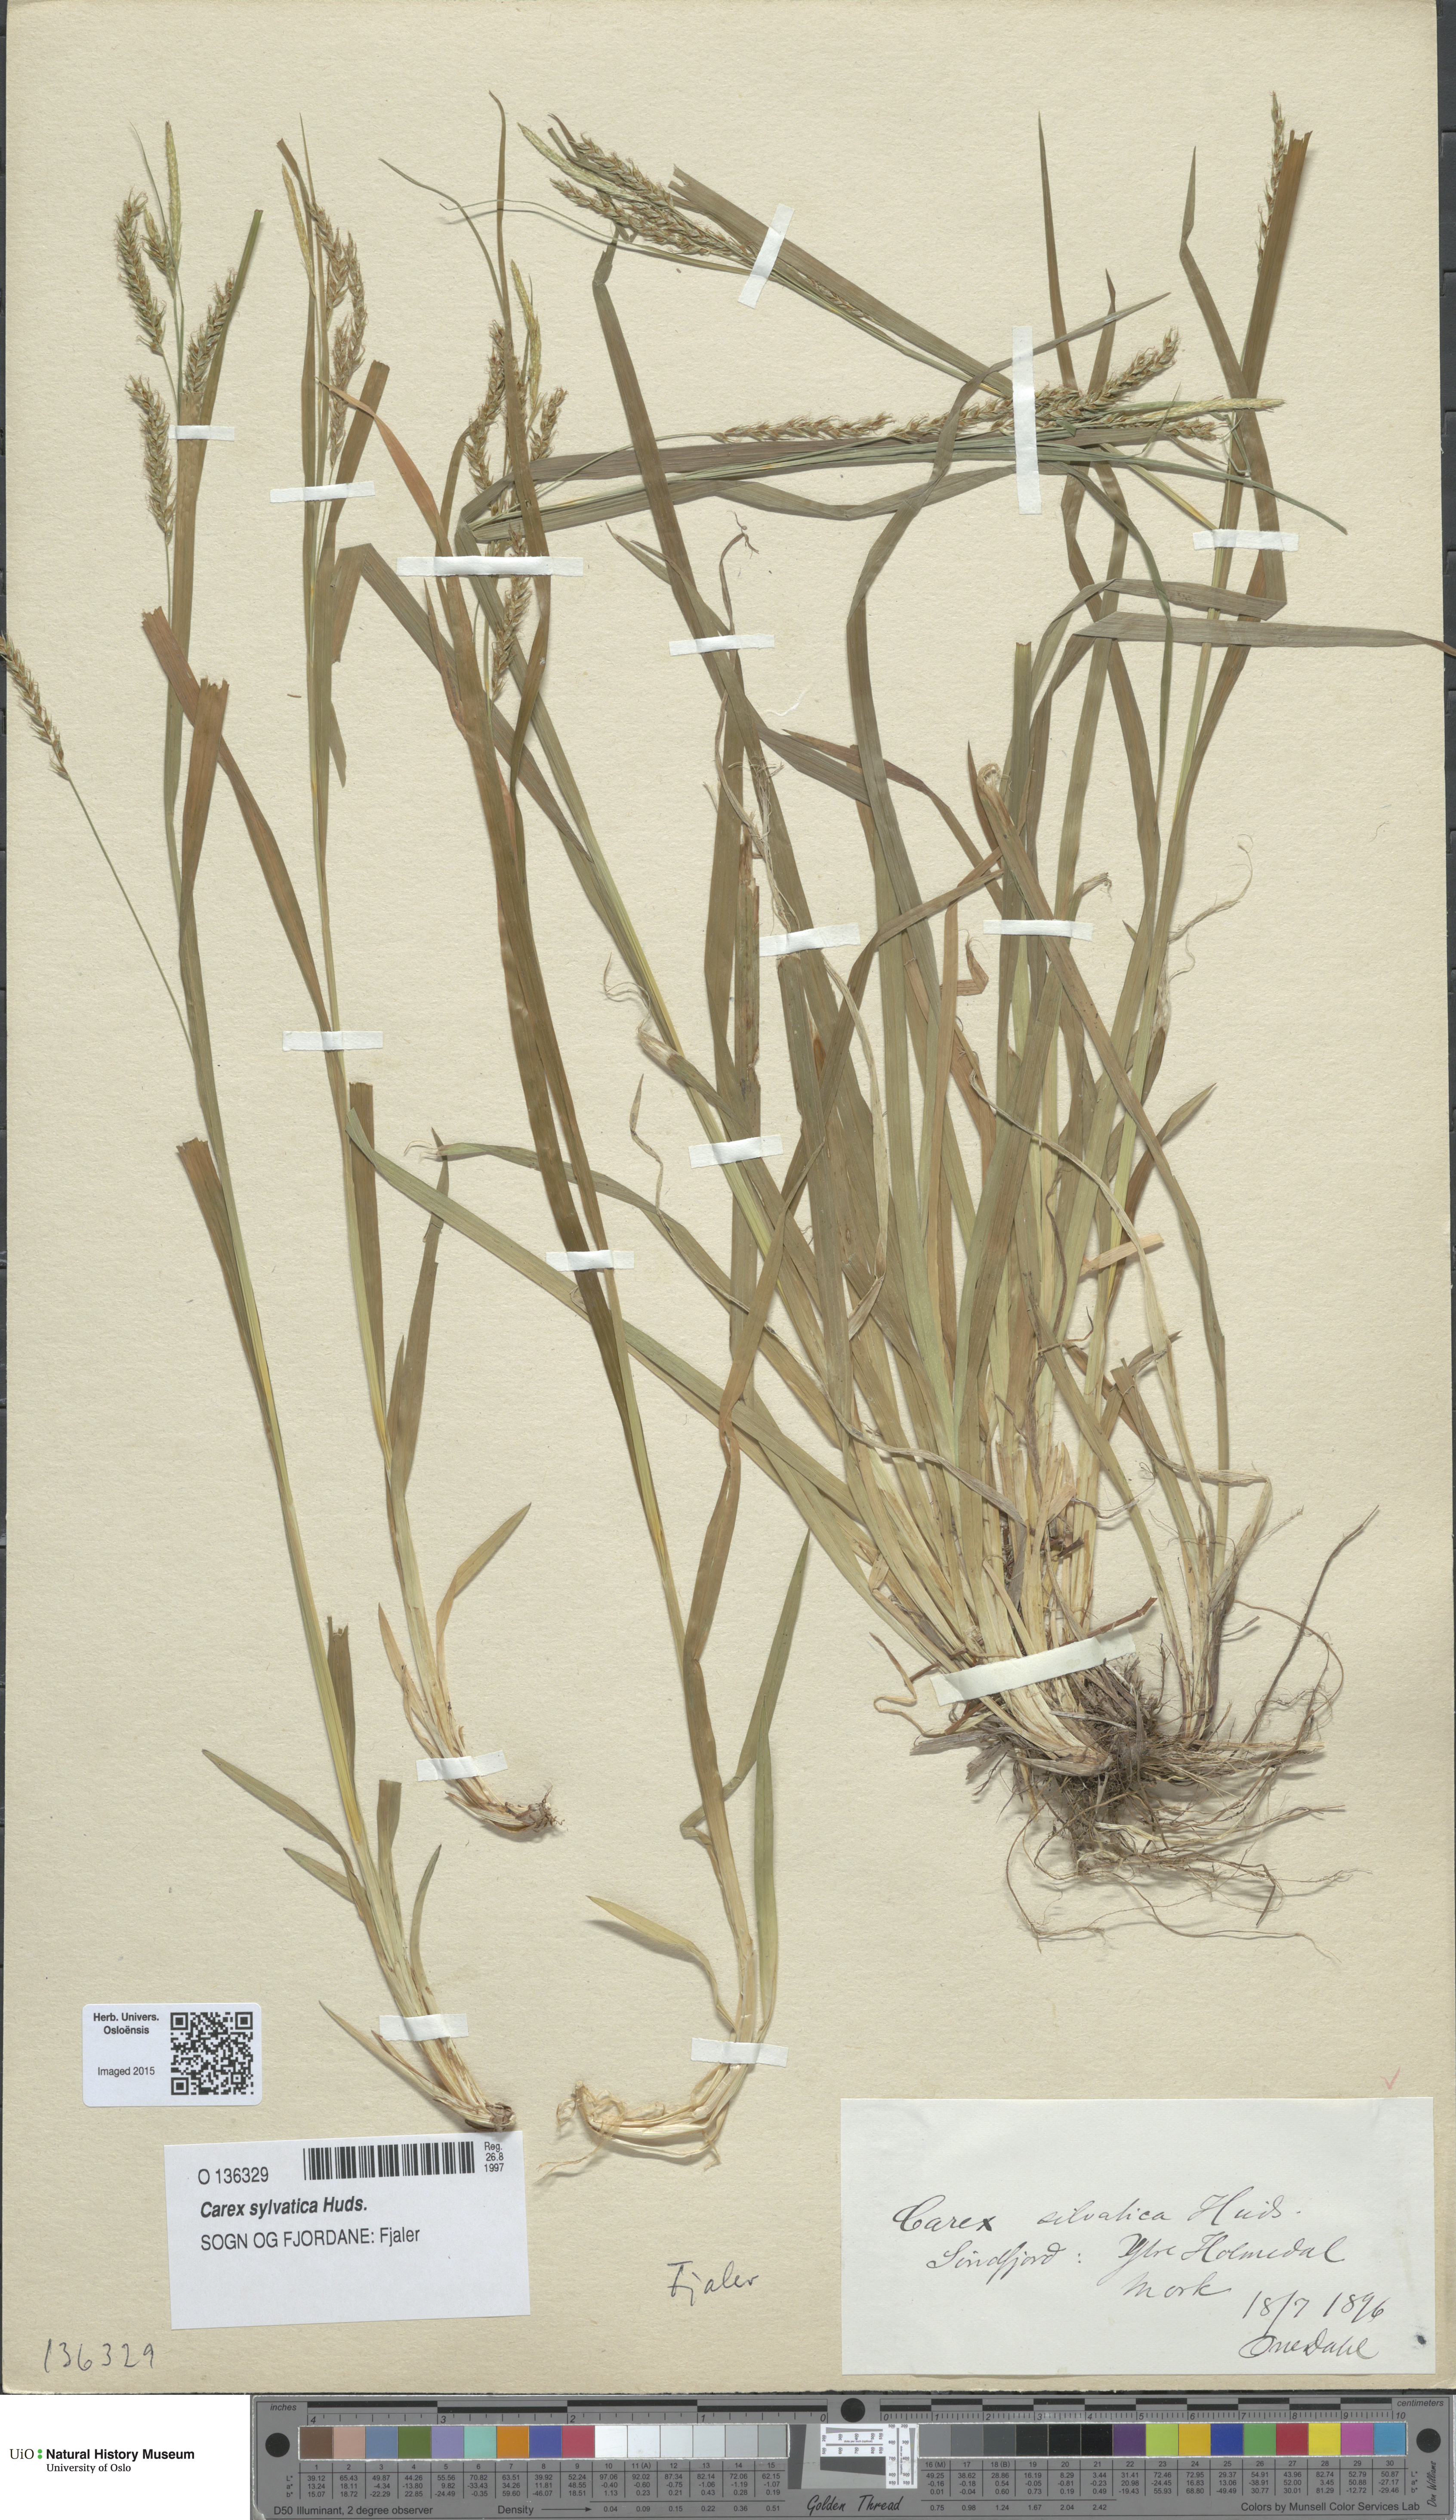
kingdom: Plantae
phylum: Tracheophyta
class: Liliopsida
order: Poales
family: Cyperaceae
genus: Carex
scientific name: Carex sylvatica
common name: Wood-sedge
